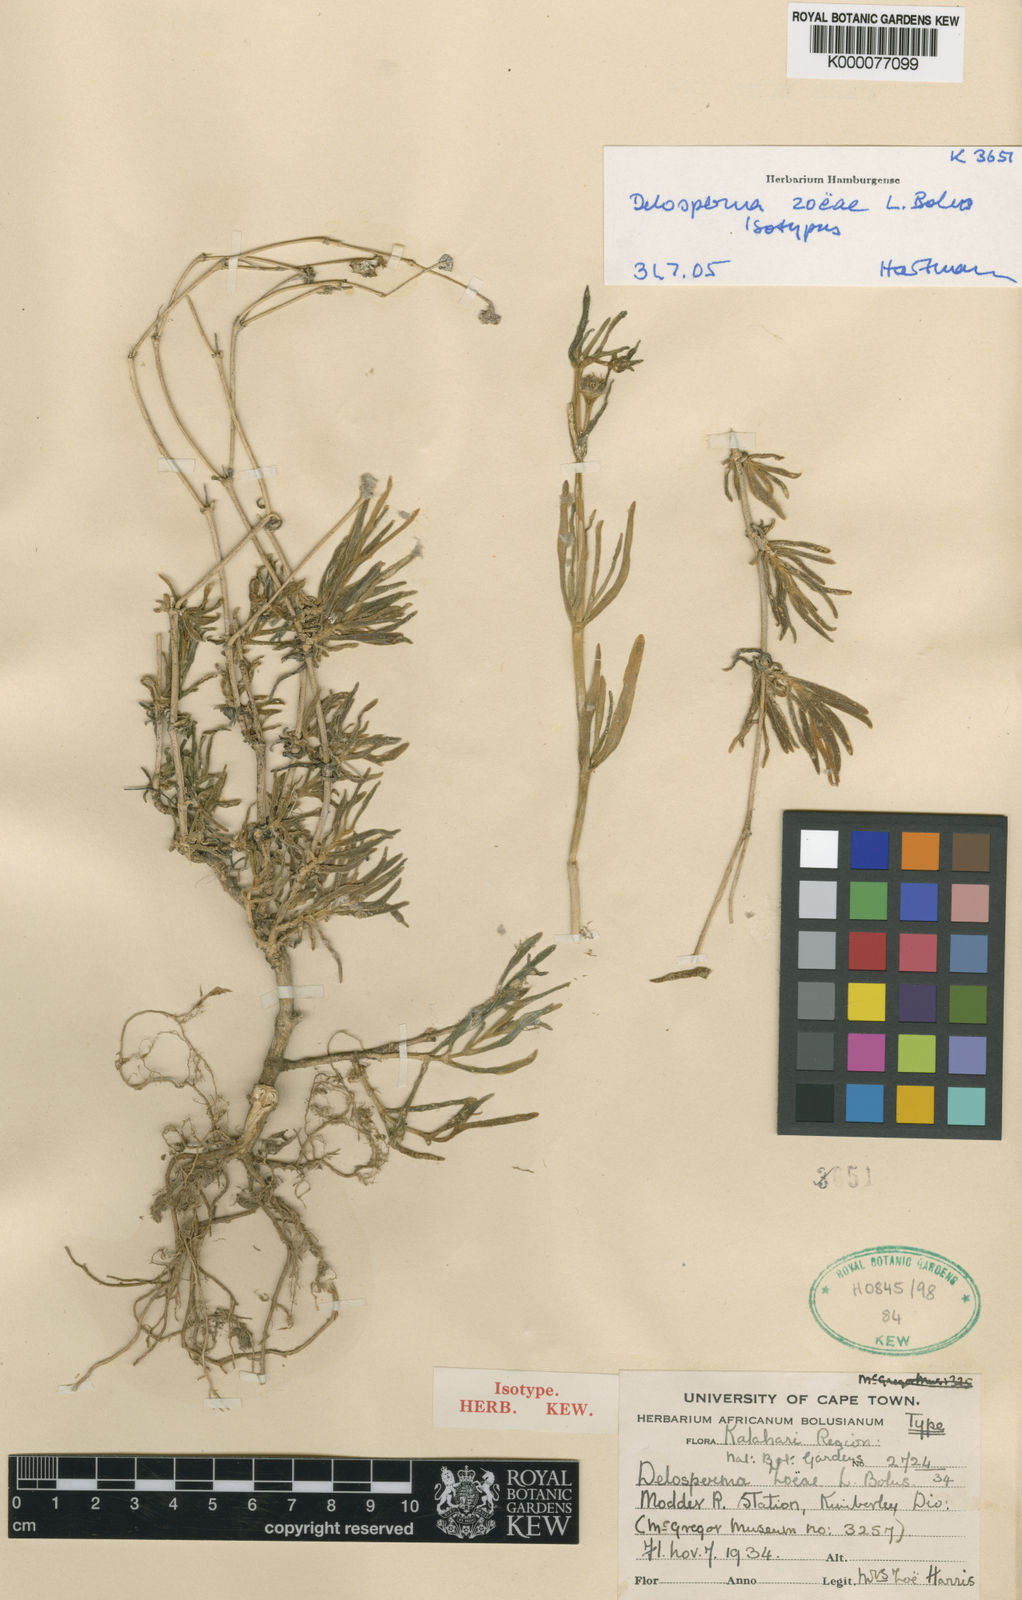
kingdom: Plantae
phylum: Tracheophyta
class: Magnoliopsida
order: Caryophyllales
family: Aizoaceae
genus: Delosperma
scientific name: Delosperma zoeae
